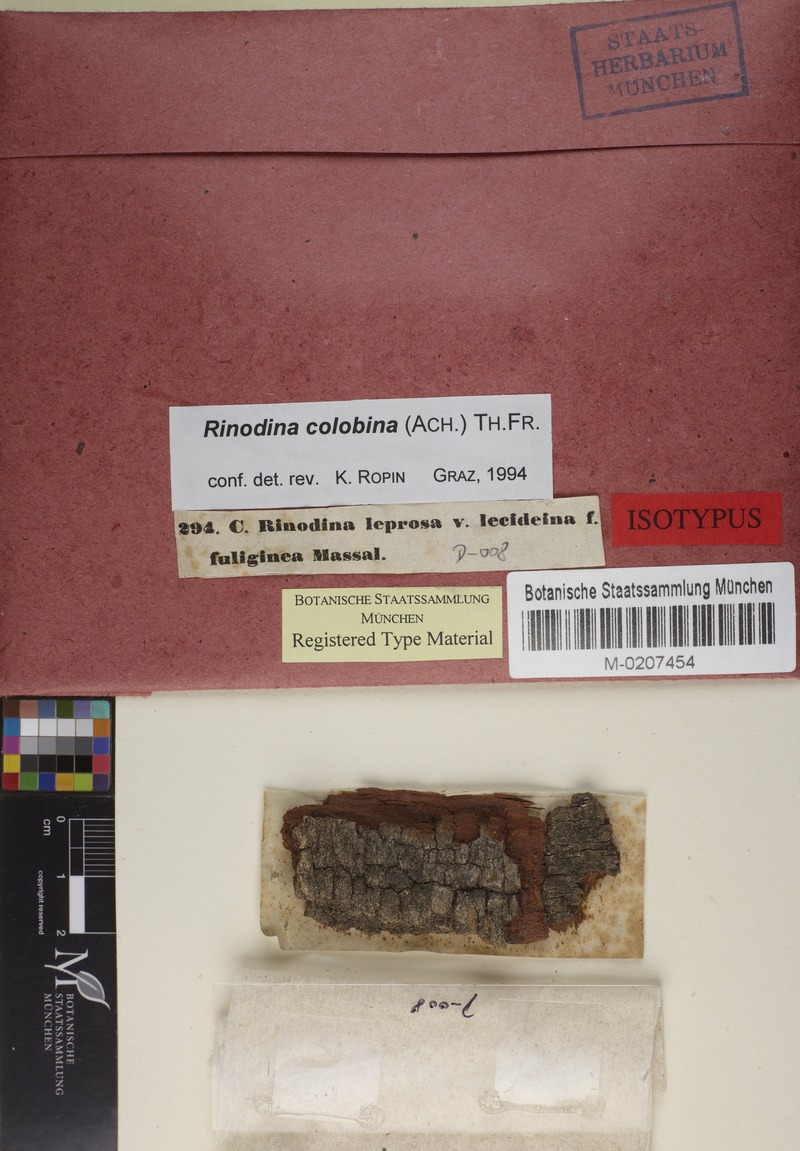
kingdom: Fungi
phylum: Ascomycota
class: Lecanoromycetes
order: Caliciales
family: Physciaceae
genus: Rinodina
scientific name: Rinodina colobina
